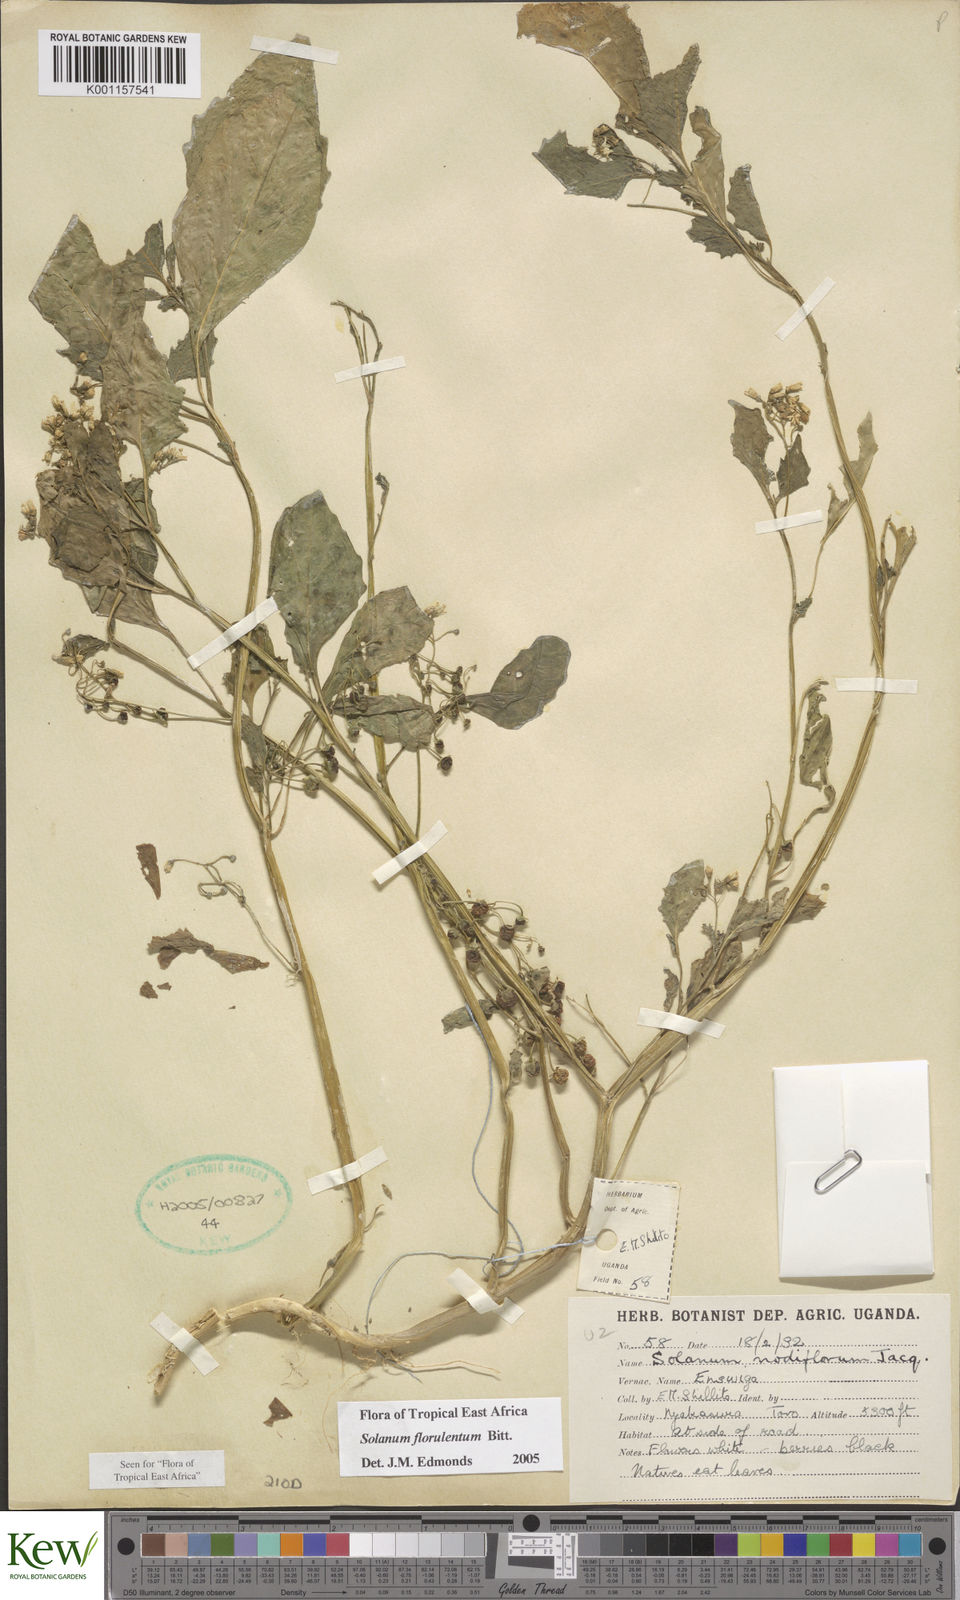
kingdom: Plantae
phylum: Tracheophyta
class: Magnoliopsida
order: Solanales
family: Solanaceae
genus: Solanum
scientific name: Solanum tarderemotum
